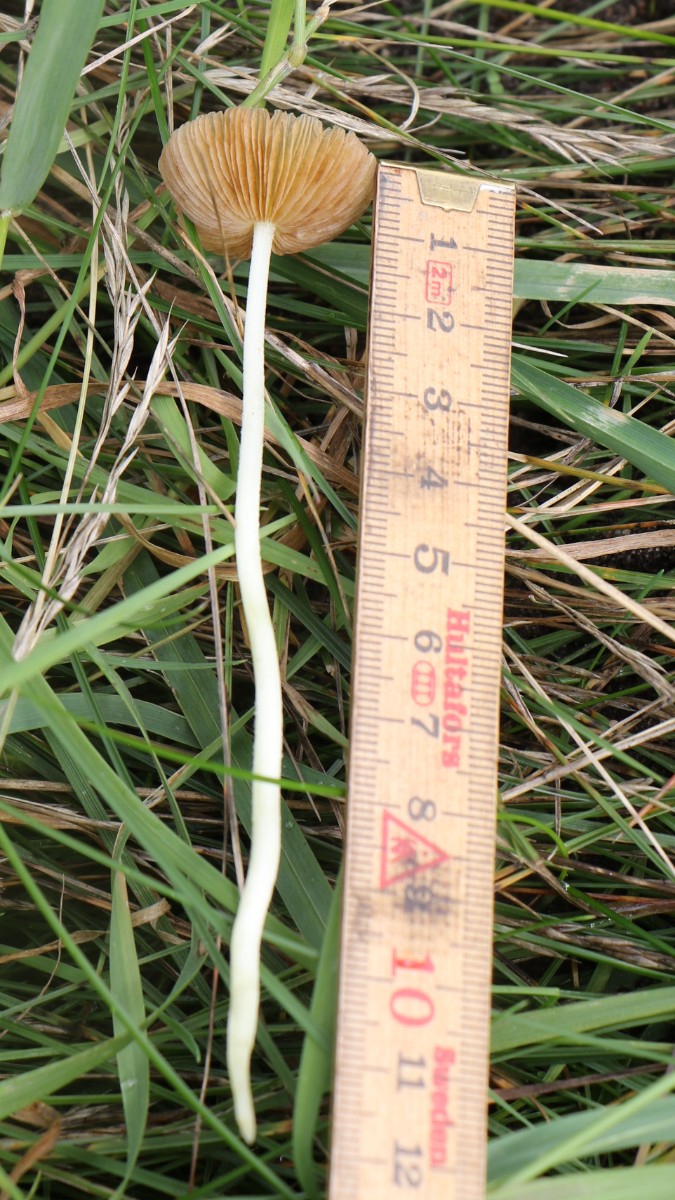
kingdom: Fungi
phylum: Basidiomycota
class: Agaricomycetes
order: Agaricales
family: Bolbitiaceae
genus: Bolbitius
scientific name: Bolbitius titubans
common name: almindelig gulhat
